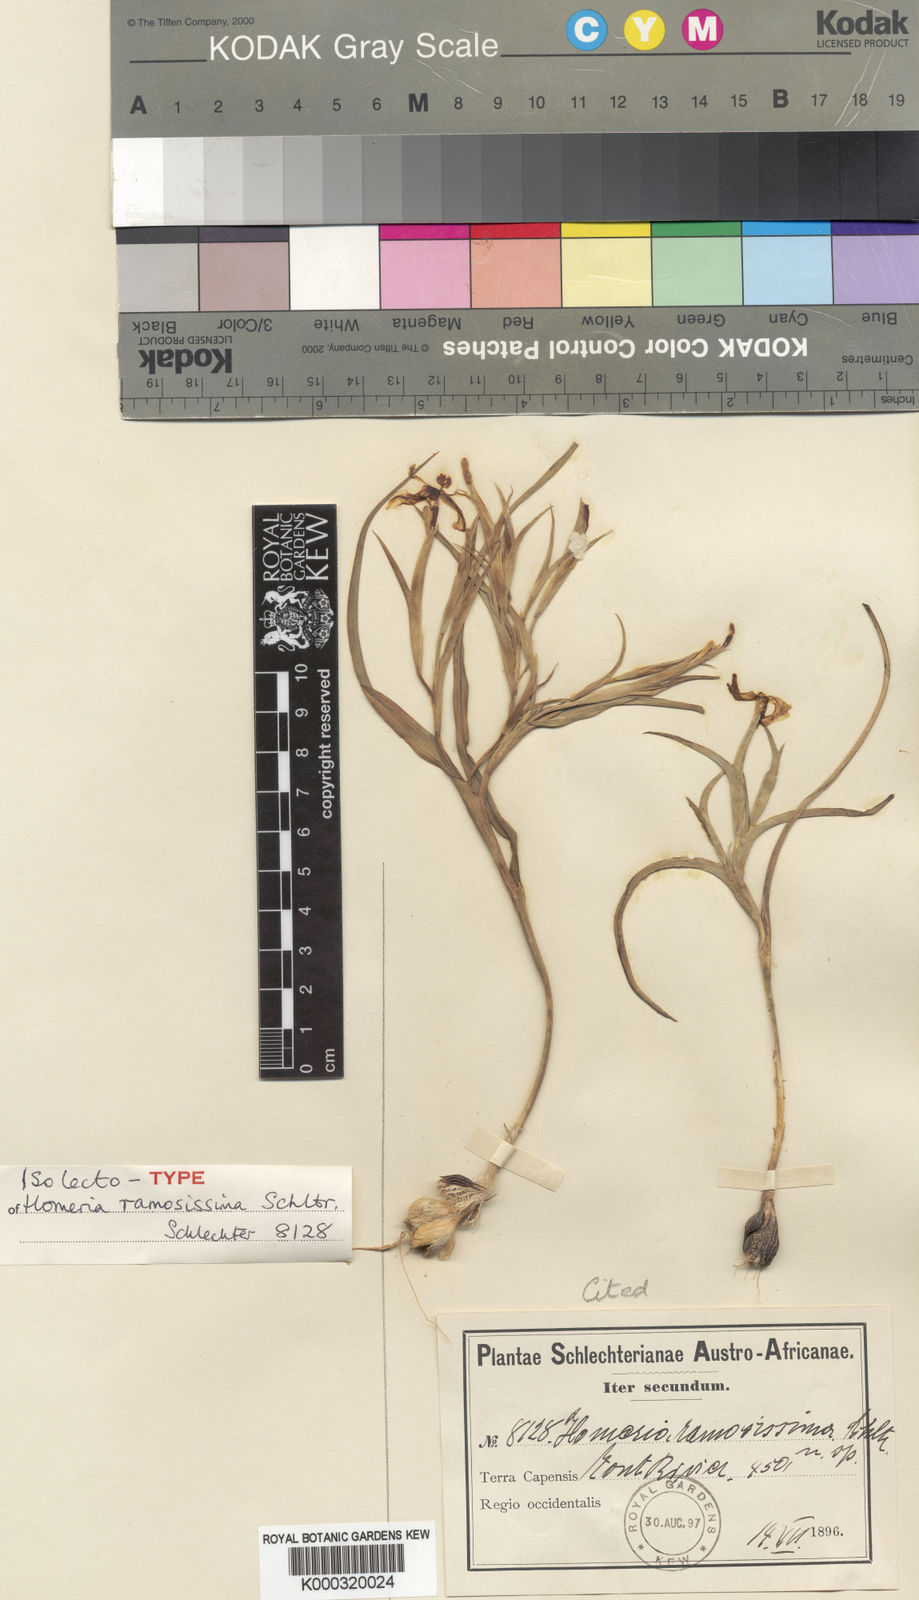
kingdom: Plantae
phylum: Tracheophyta
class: Liliopsida
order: Asparagales
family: Iridaceae
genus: Moraea
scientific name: Moraea knersvlaktensis
